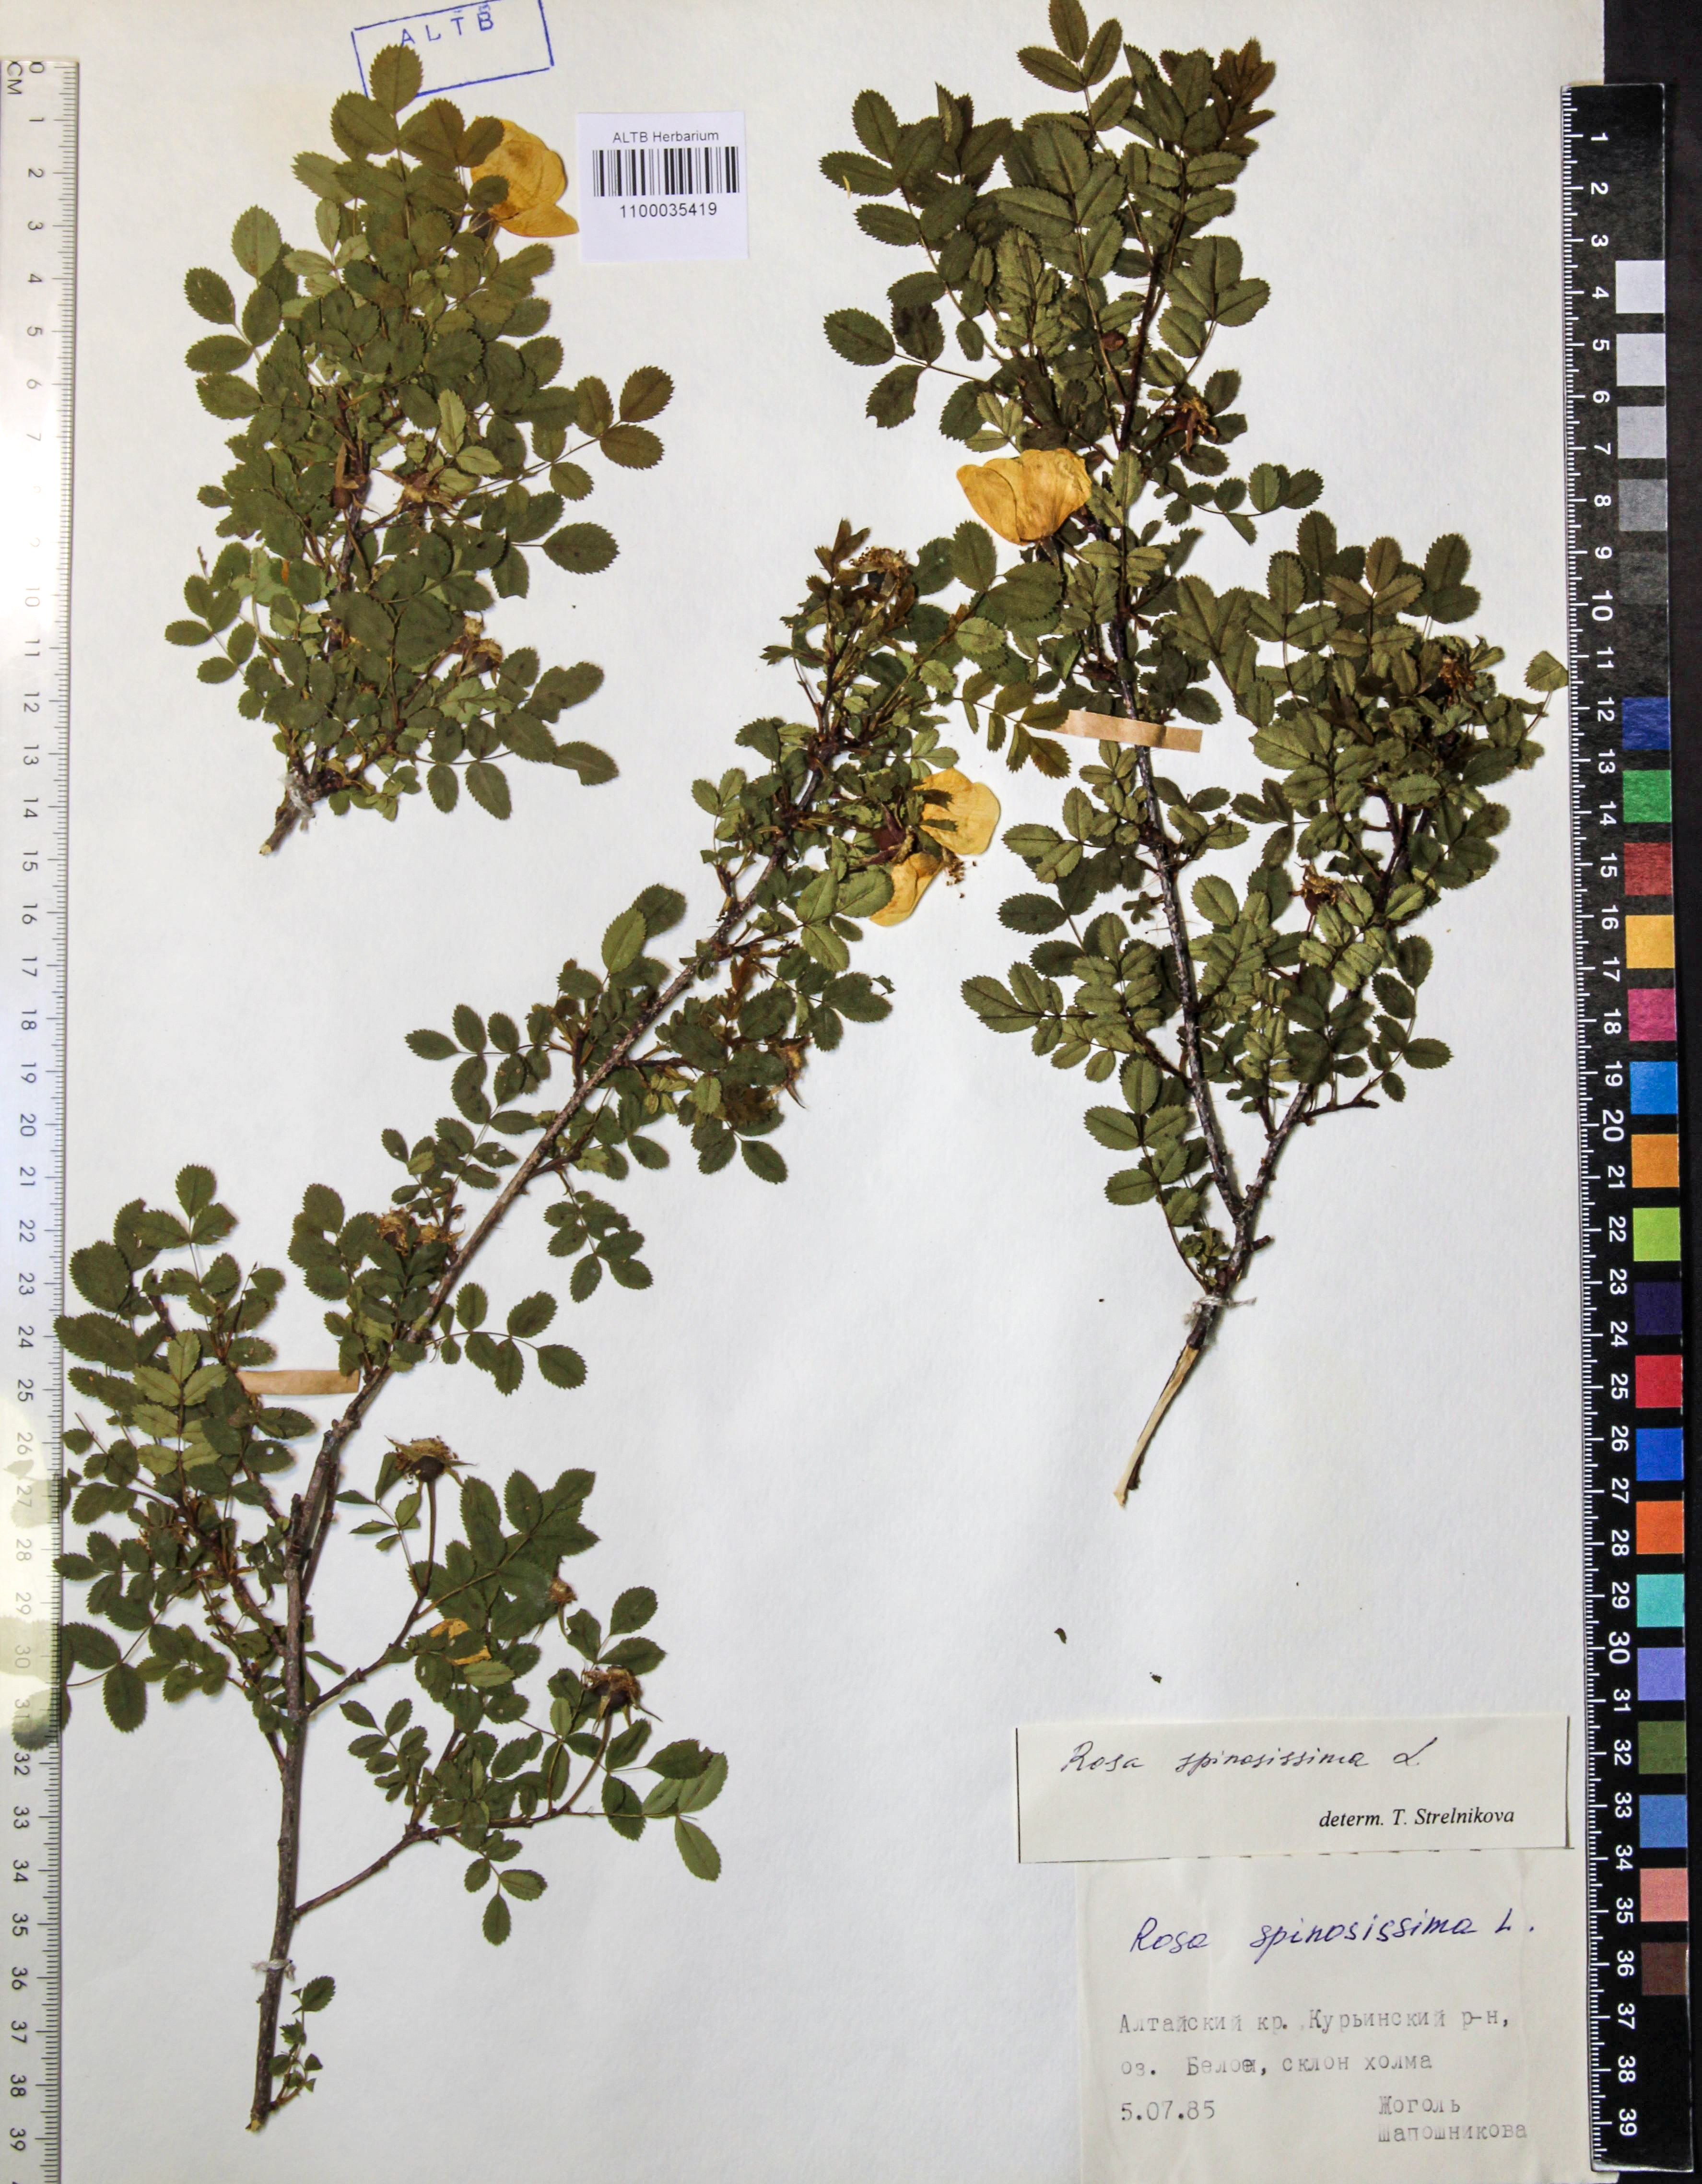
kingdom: Plantae
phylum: Tracheophyta
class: Magnoliopsida
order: Rosales
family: Rosaceae
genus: Rosa
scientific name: Rosa spinosissima
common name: Burnet rose
